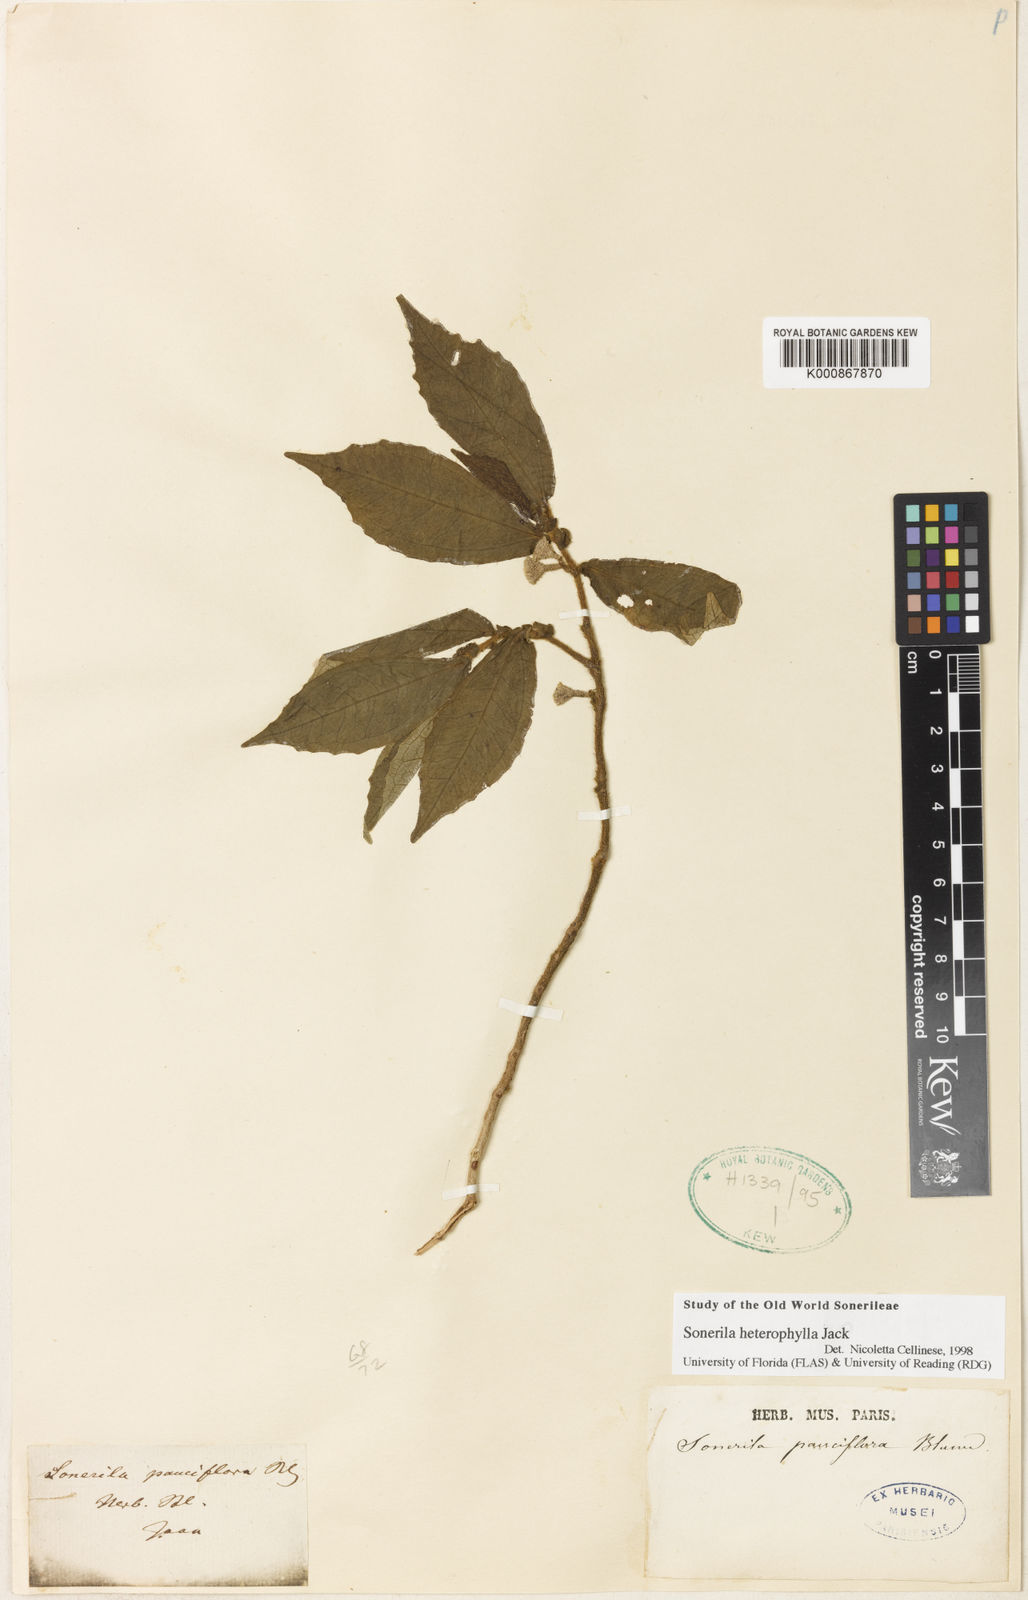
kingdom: Plantae
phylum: Tracheophyta
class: Magnoliopsida
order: Myrtales
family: Melastomataceae
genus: Sonerila
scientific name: Sonerila heterophylla
